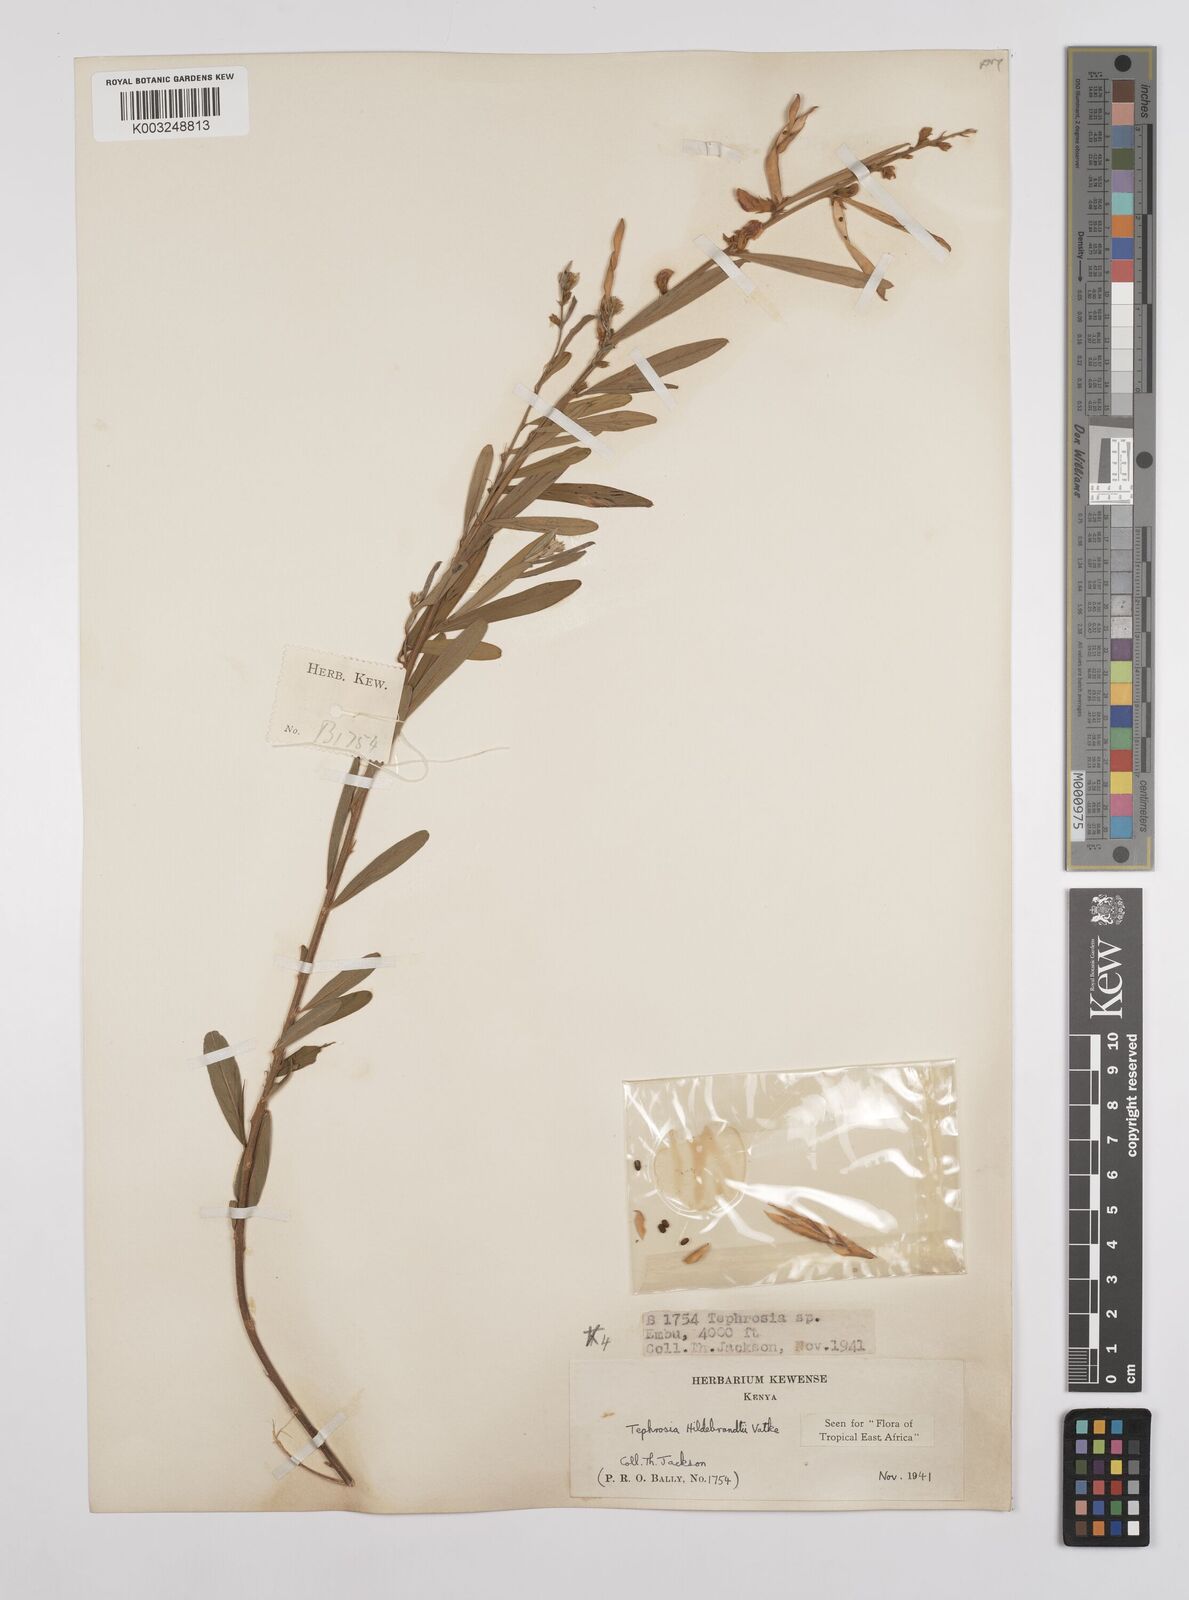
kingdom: Plantae
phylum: Tracheophyta
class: Magnoliopsida
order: Fabales
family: Fabaceae
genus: Tephrosia
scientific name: Tephrosia hildebrandtii
